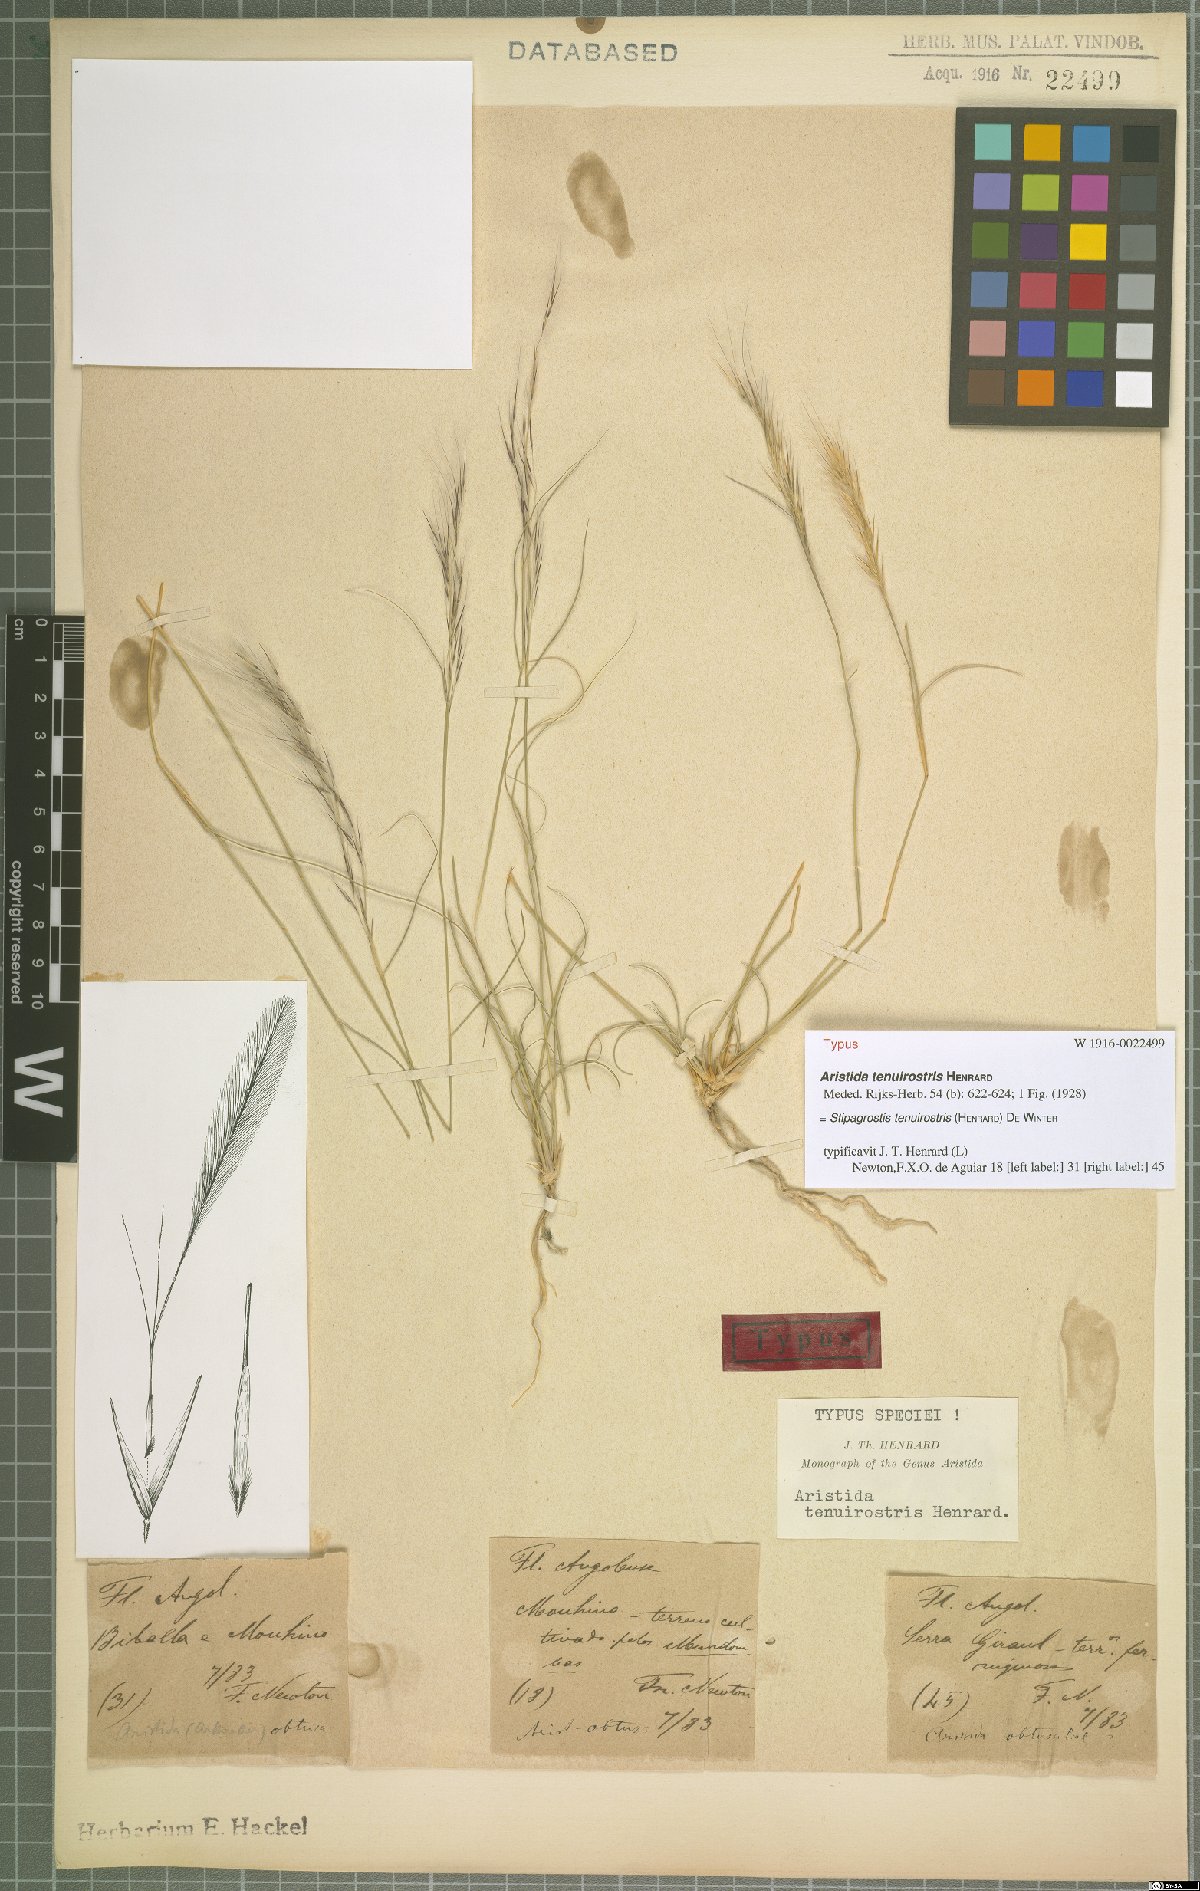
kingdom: Plantae
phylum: Tracheophyta
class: Liliopsida
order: Poales
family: Poaceae
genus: Stipagrostis
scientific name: Stipagrostis uniplumis
